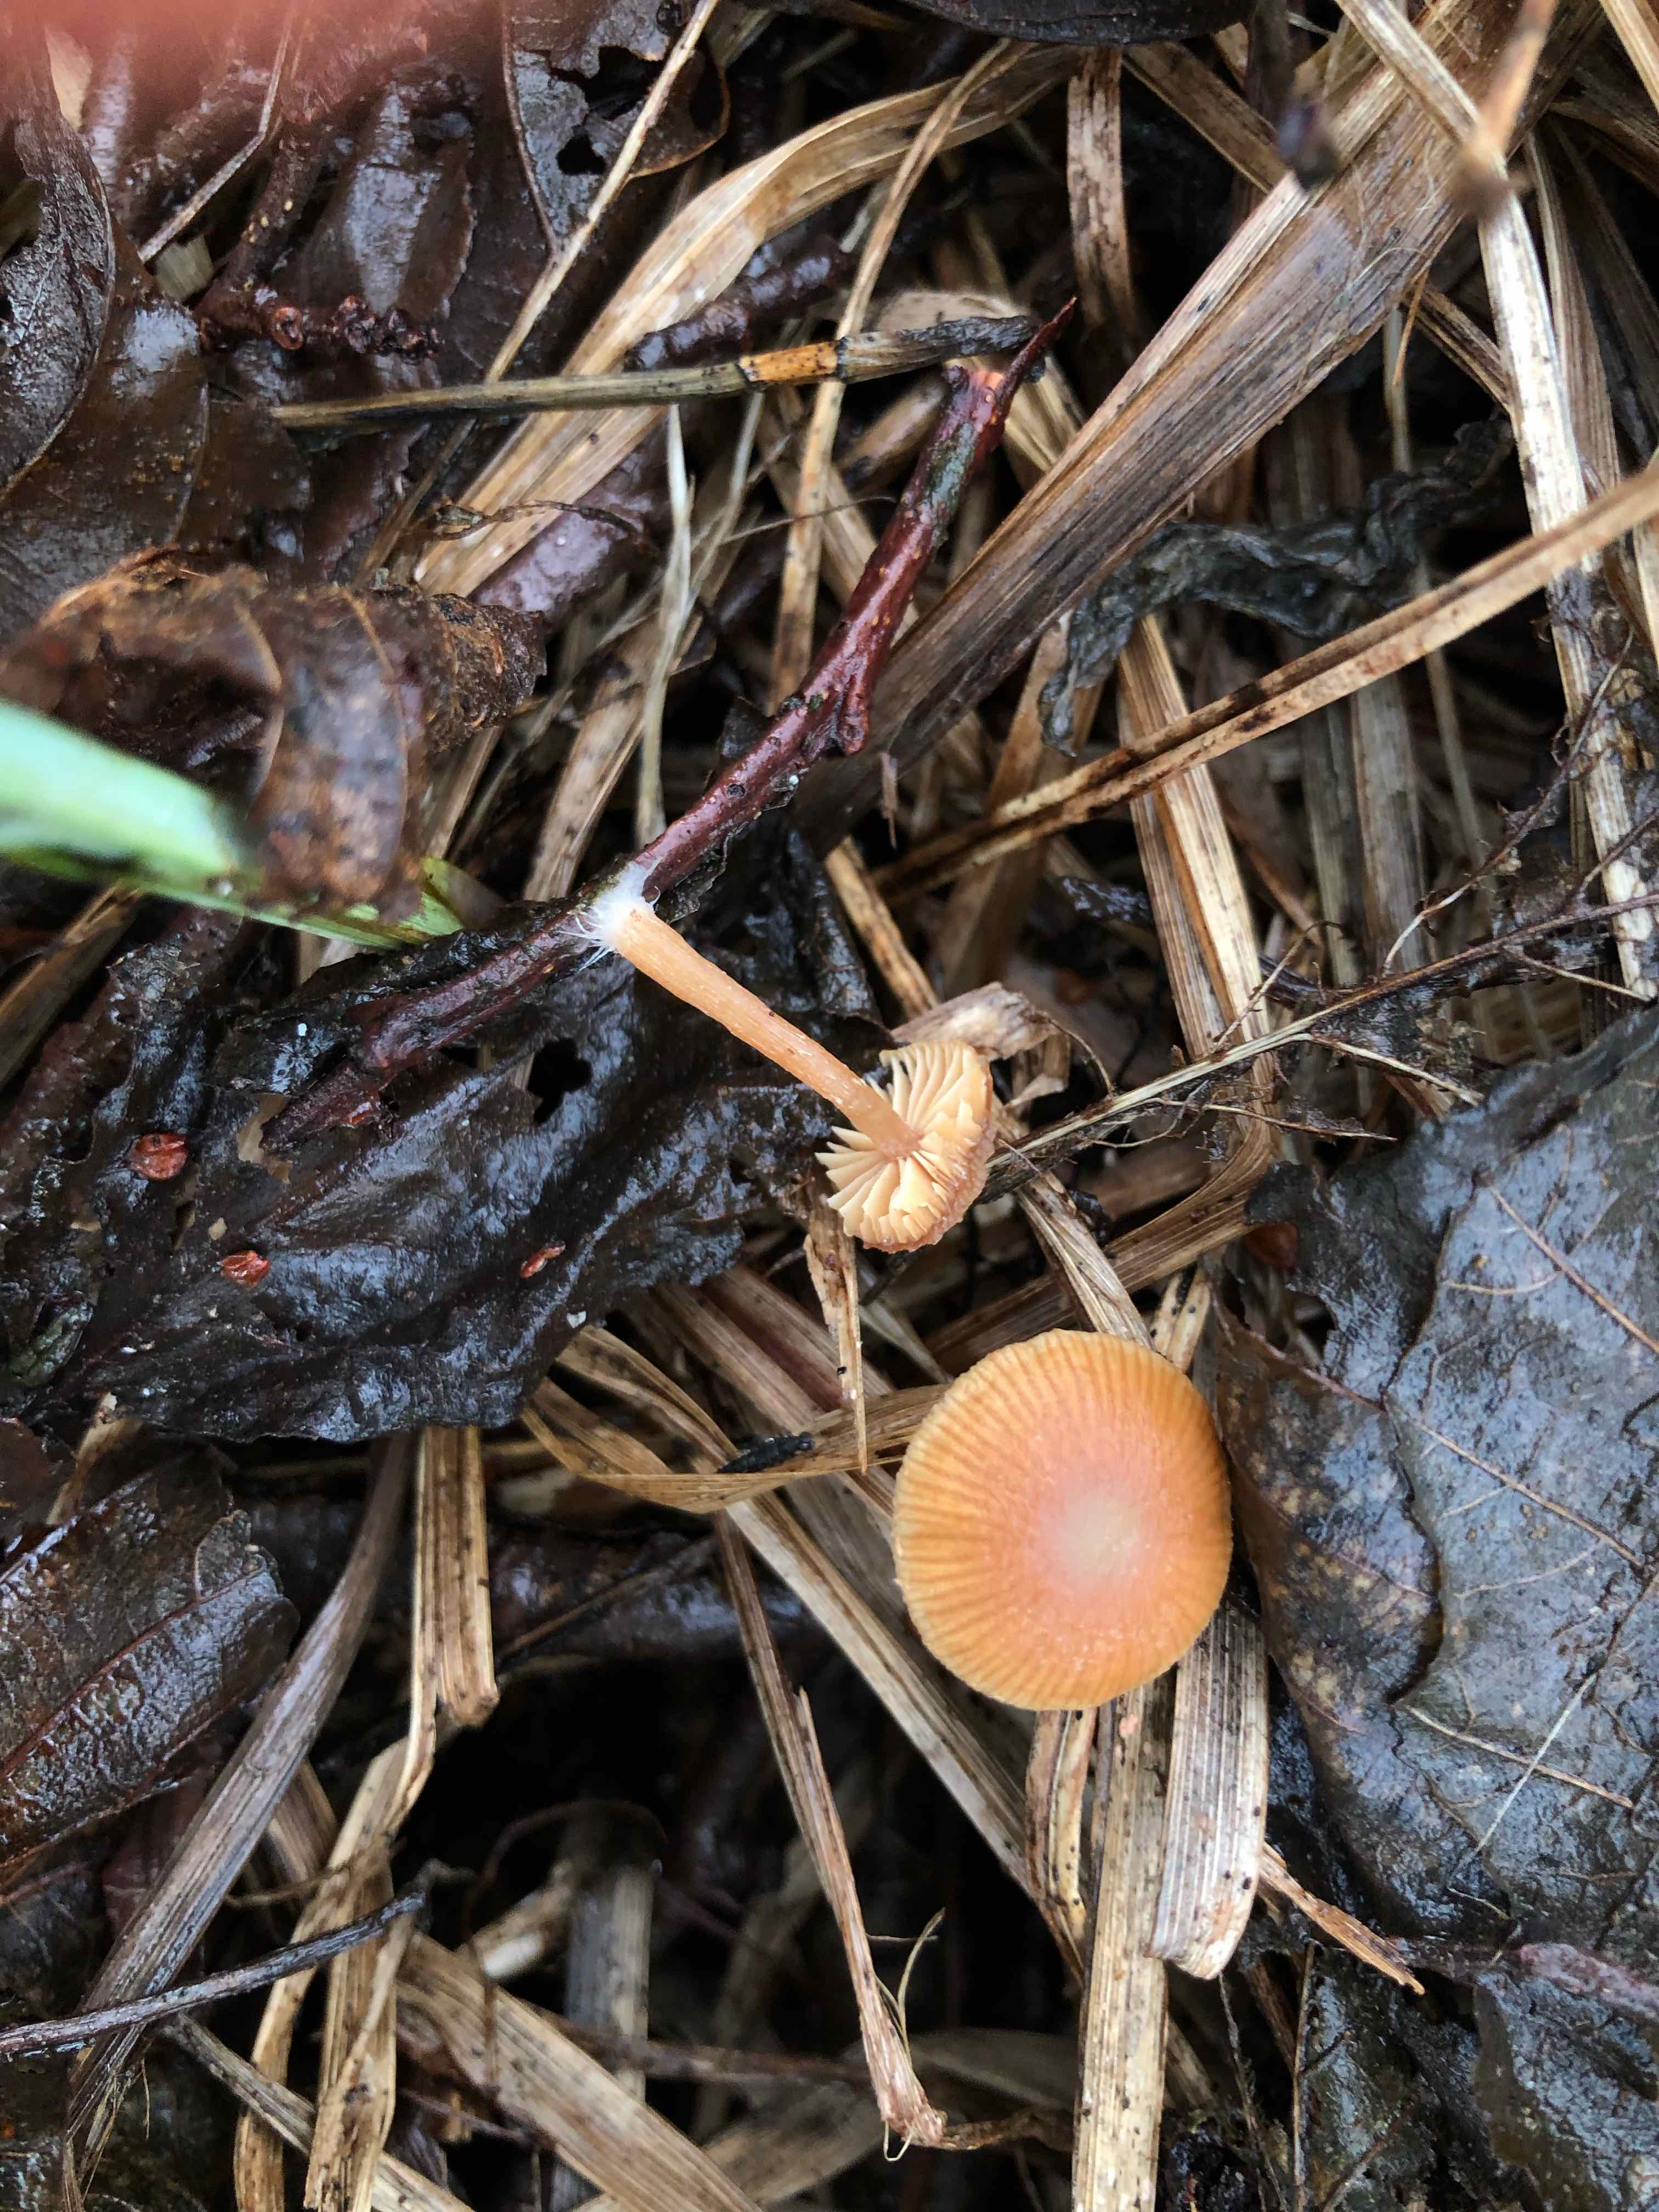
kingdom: Fungi
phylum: Basidiomycota
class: Agaricomycetes
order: Agaricales
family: Tubariaceae
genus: Tubaria
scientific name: Tubaria furfuracea
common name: kliddet fnughat
